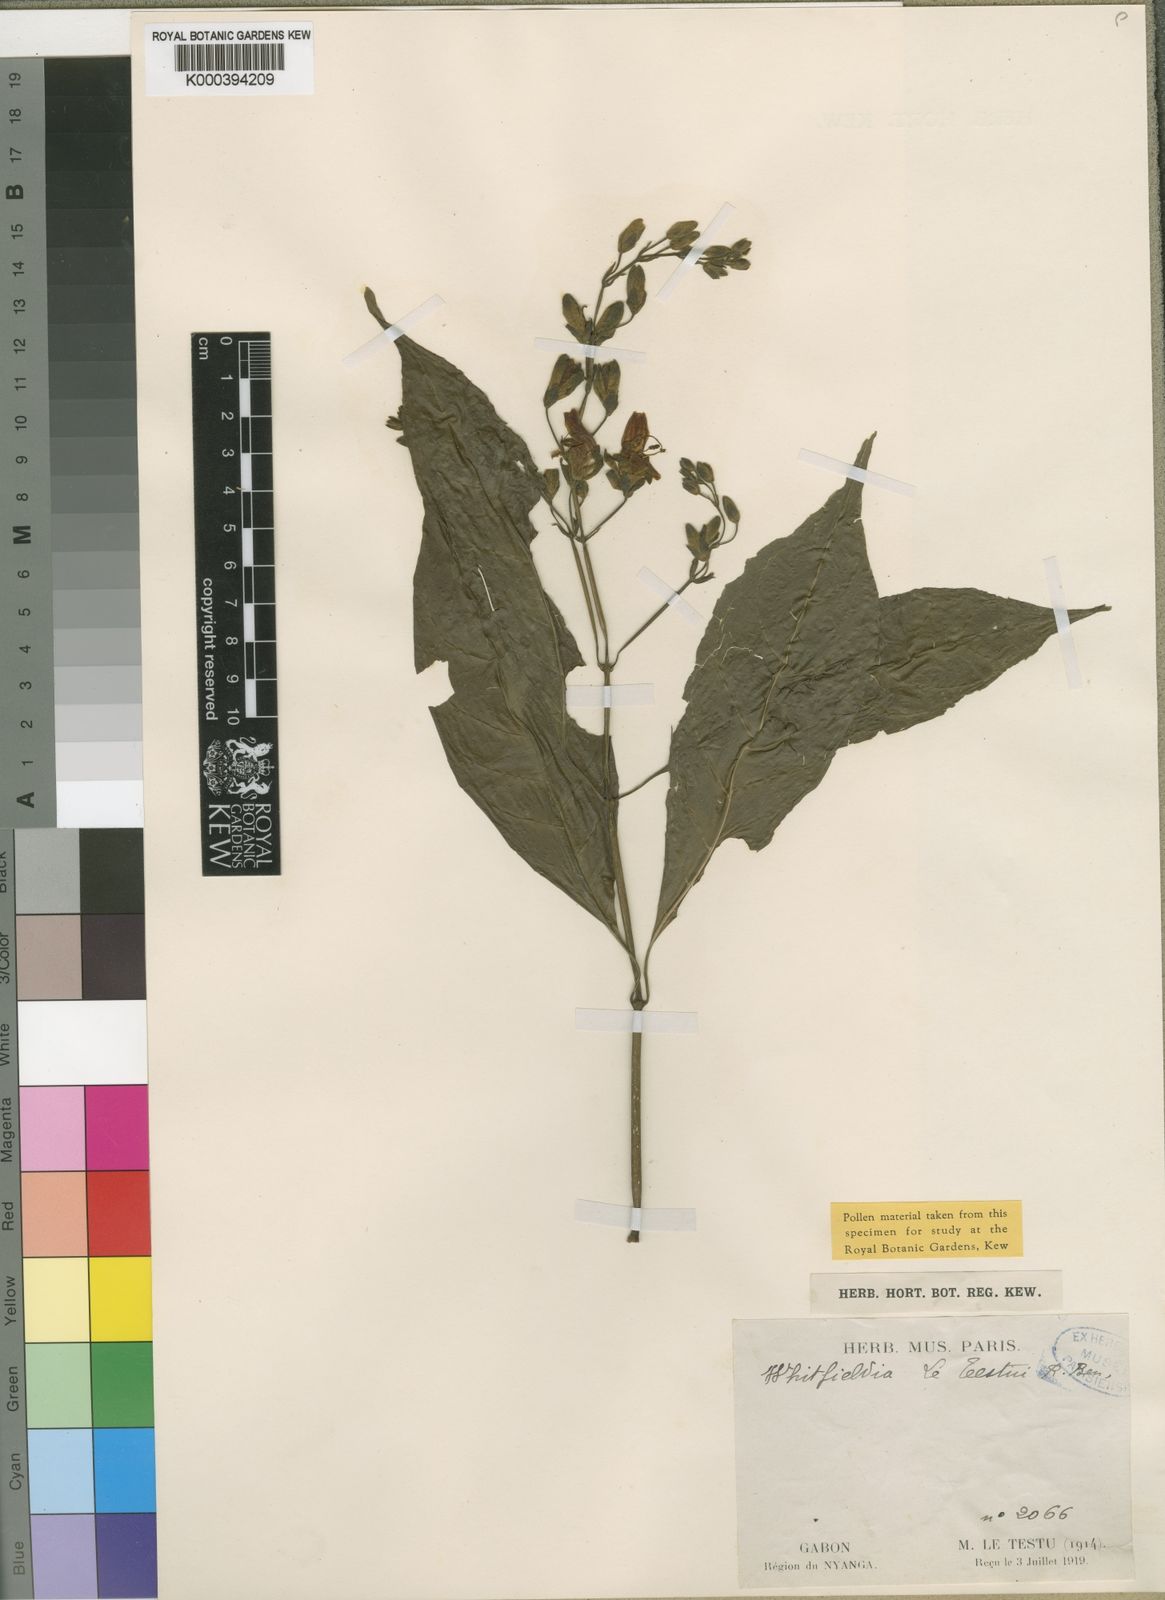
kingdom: Plantae
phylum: Tracheophyta
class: Magnoliopsida
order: Lamiales
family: Acanthaceae
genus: Whitfieldia
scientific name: Whitfieldia preussii
